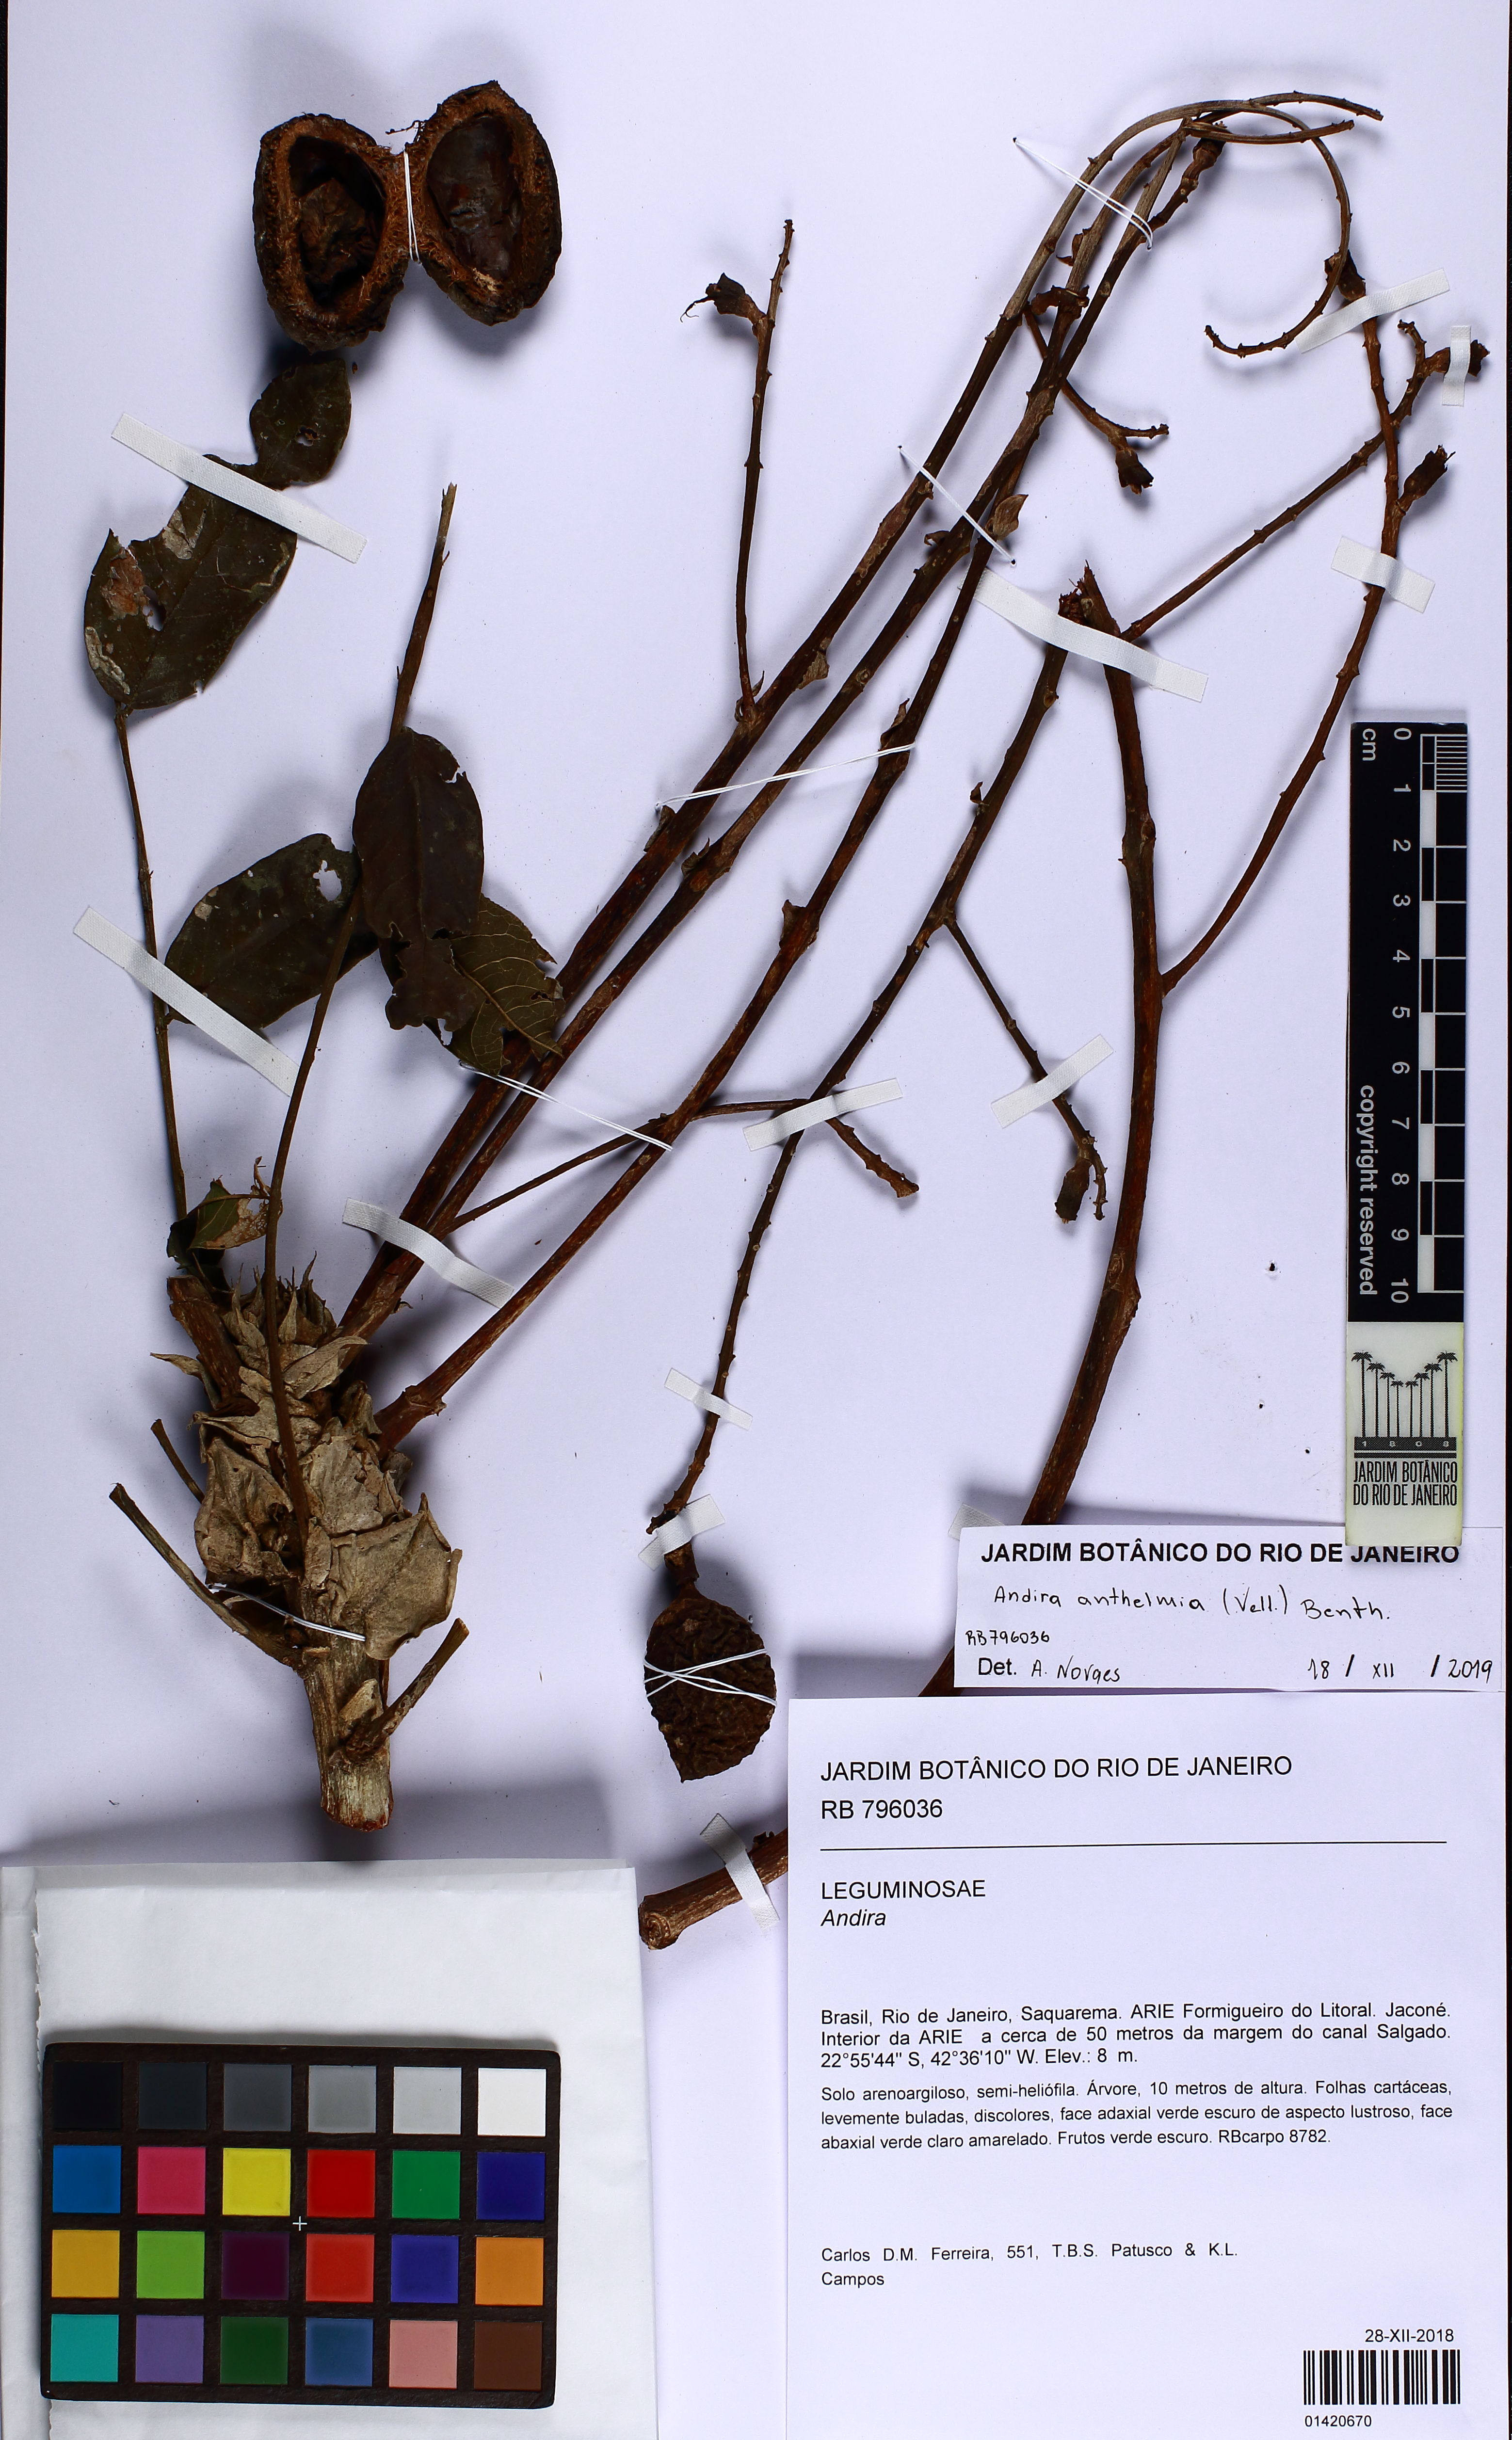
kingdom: Plantae
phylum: Tracheophyta
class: Magnoliopsida
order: Fabales
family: Fabaceae
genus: Andira
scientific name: Andira anthelmia
